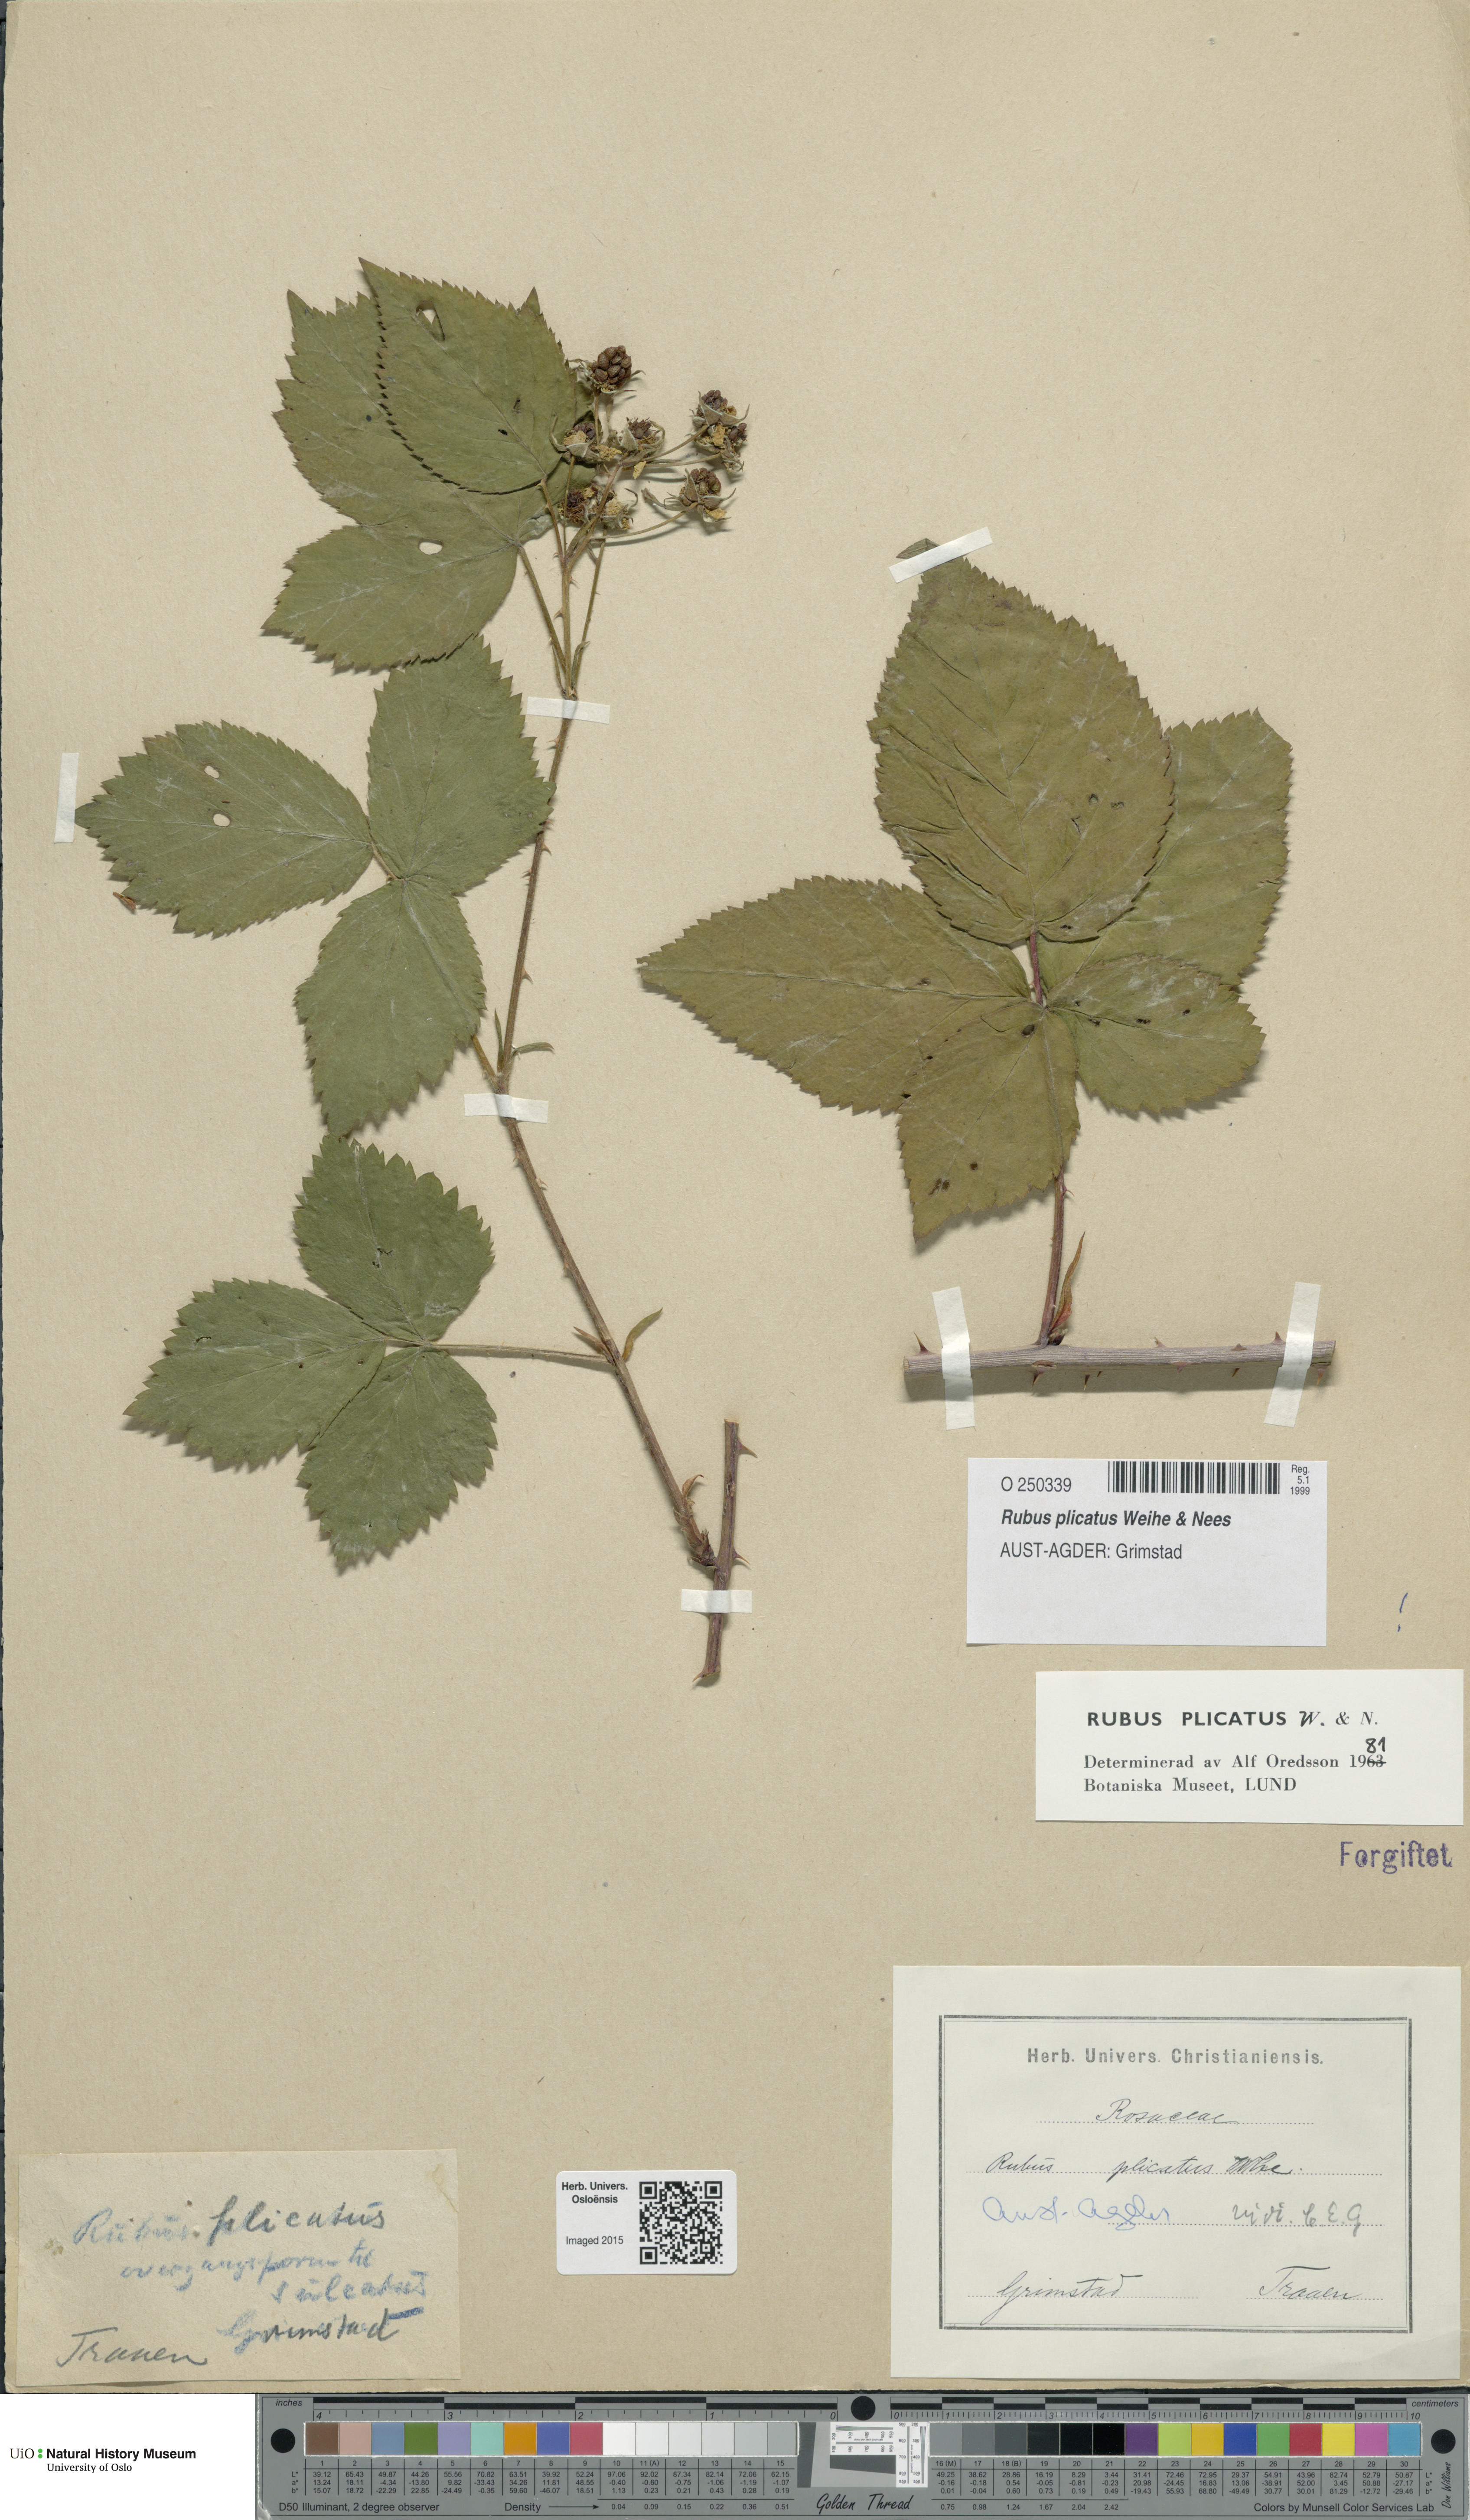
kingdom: Plantae
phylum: Tracheophyta
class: Magnoliopsida
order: Rosales
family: Rosaceae
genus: Rubus
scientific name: Rubus fruticosus
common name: Blackberry, bramble
